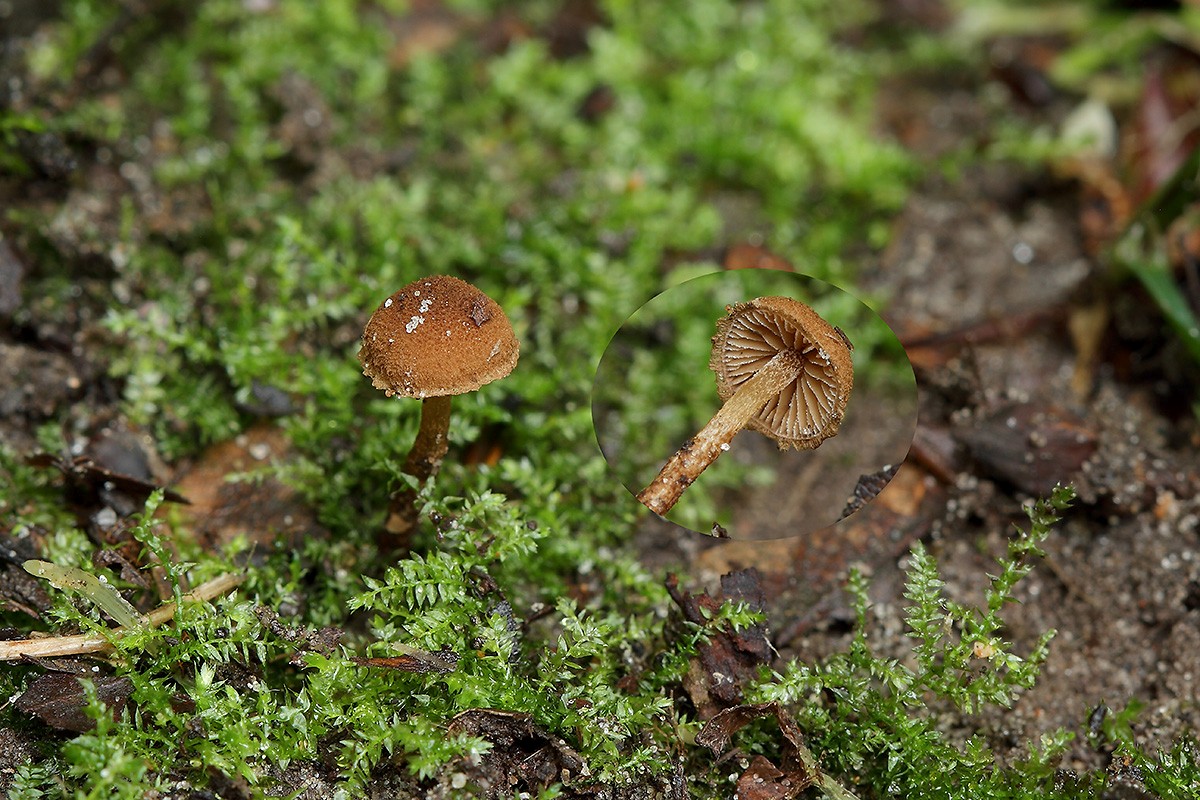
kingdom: Fungi
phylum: Basidiomycota
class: Agaricomycetes
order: Agaricales
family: Tubariaceae
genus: Flammulaster
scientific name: Flammulaster granulosus
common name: gulbrun grynskælhat
